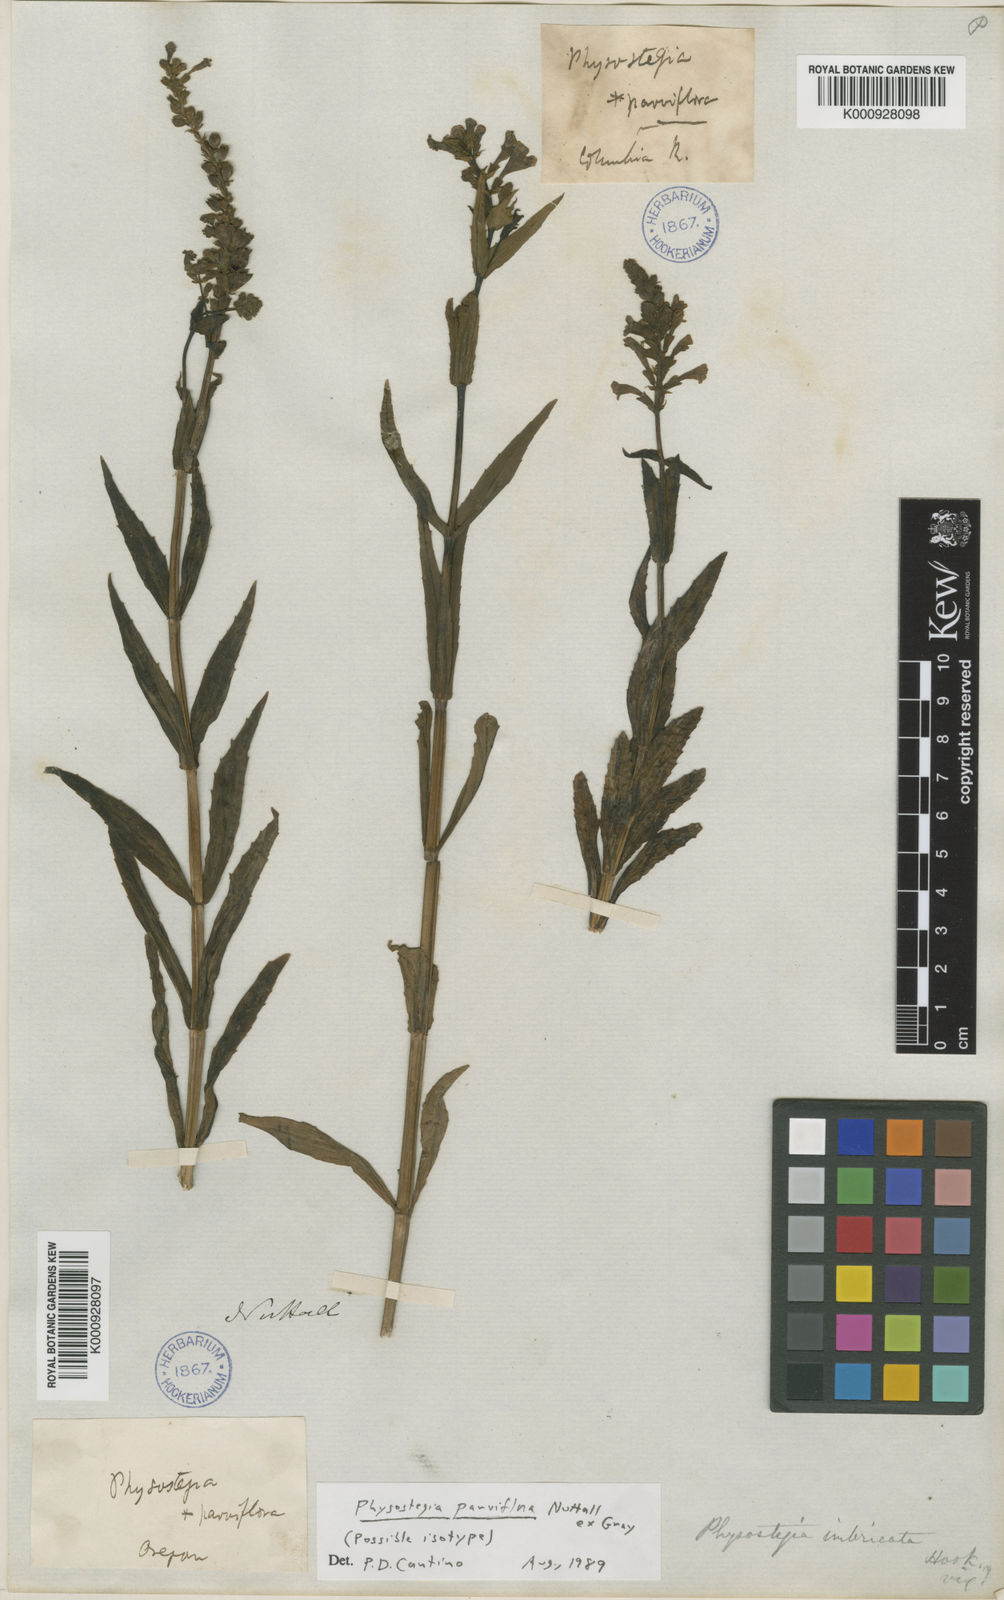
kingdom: Plantae
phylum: Tracheophyta
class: Magnoliopsida
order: Lamiales
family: Lamiaceae
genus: Physostegia
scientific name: Physostegia parviflora
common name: American dragonhead
